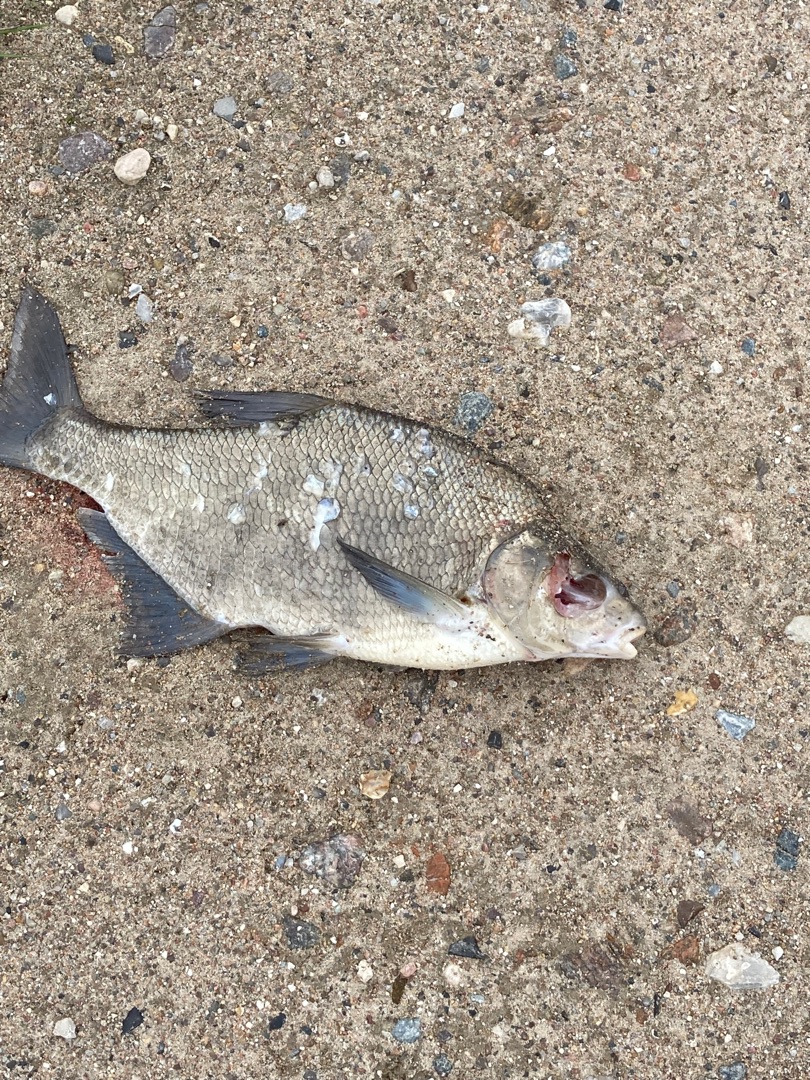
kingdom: Animalia
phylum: Chordata
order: Cypriniformes
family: Cyprinidae
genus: Abramis
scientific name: Abramis brama
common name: Brasen
